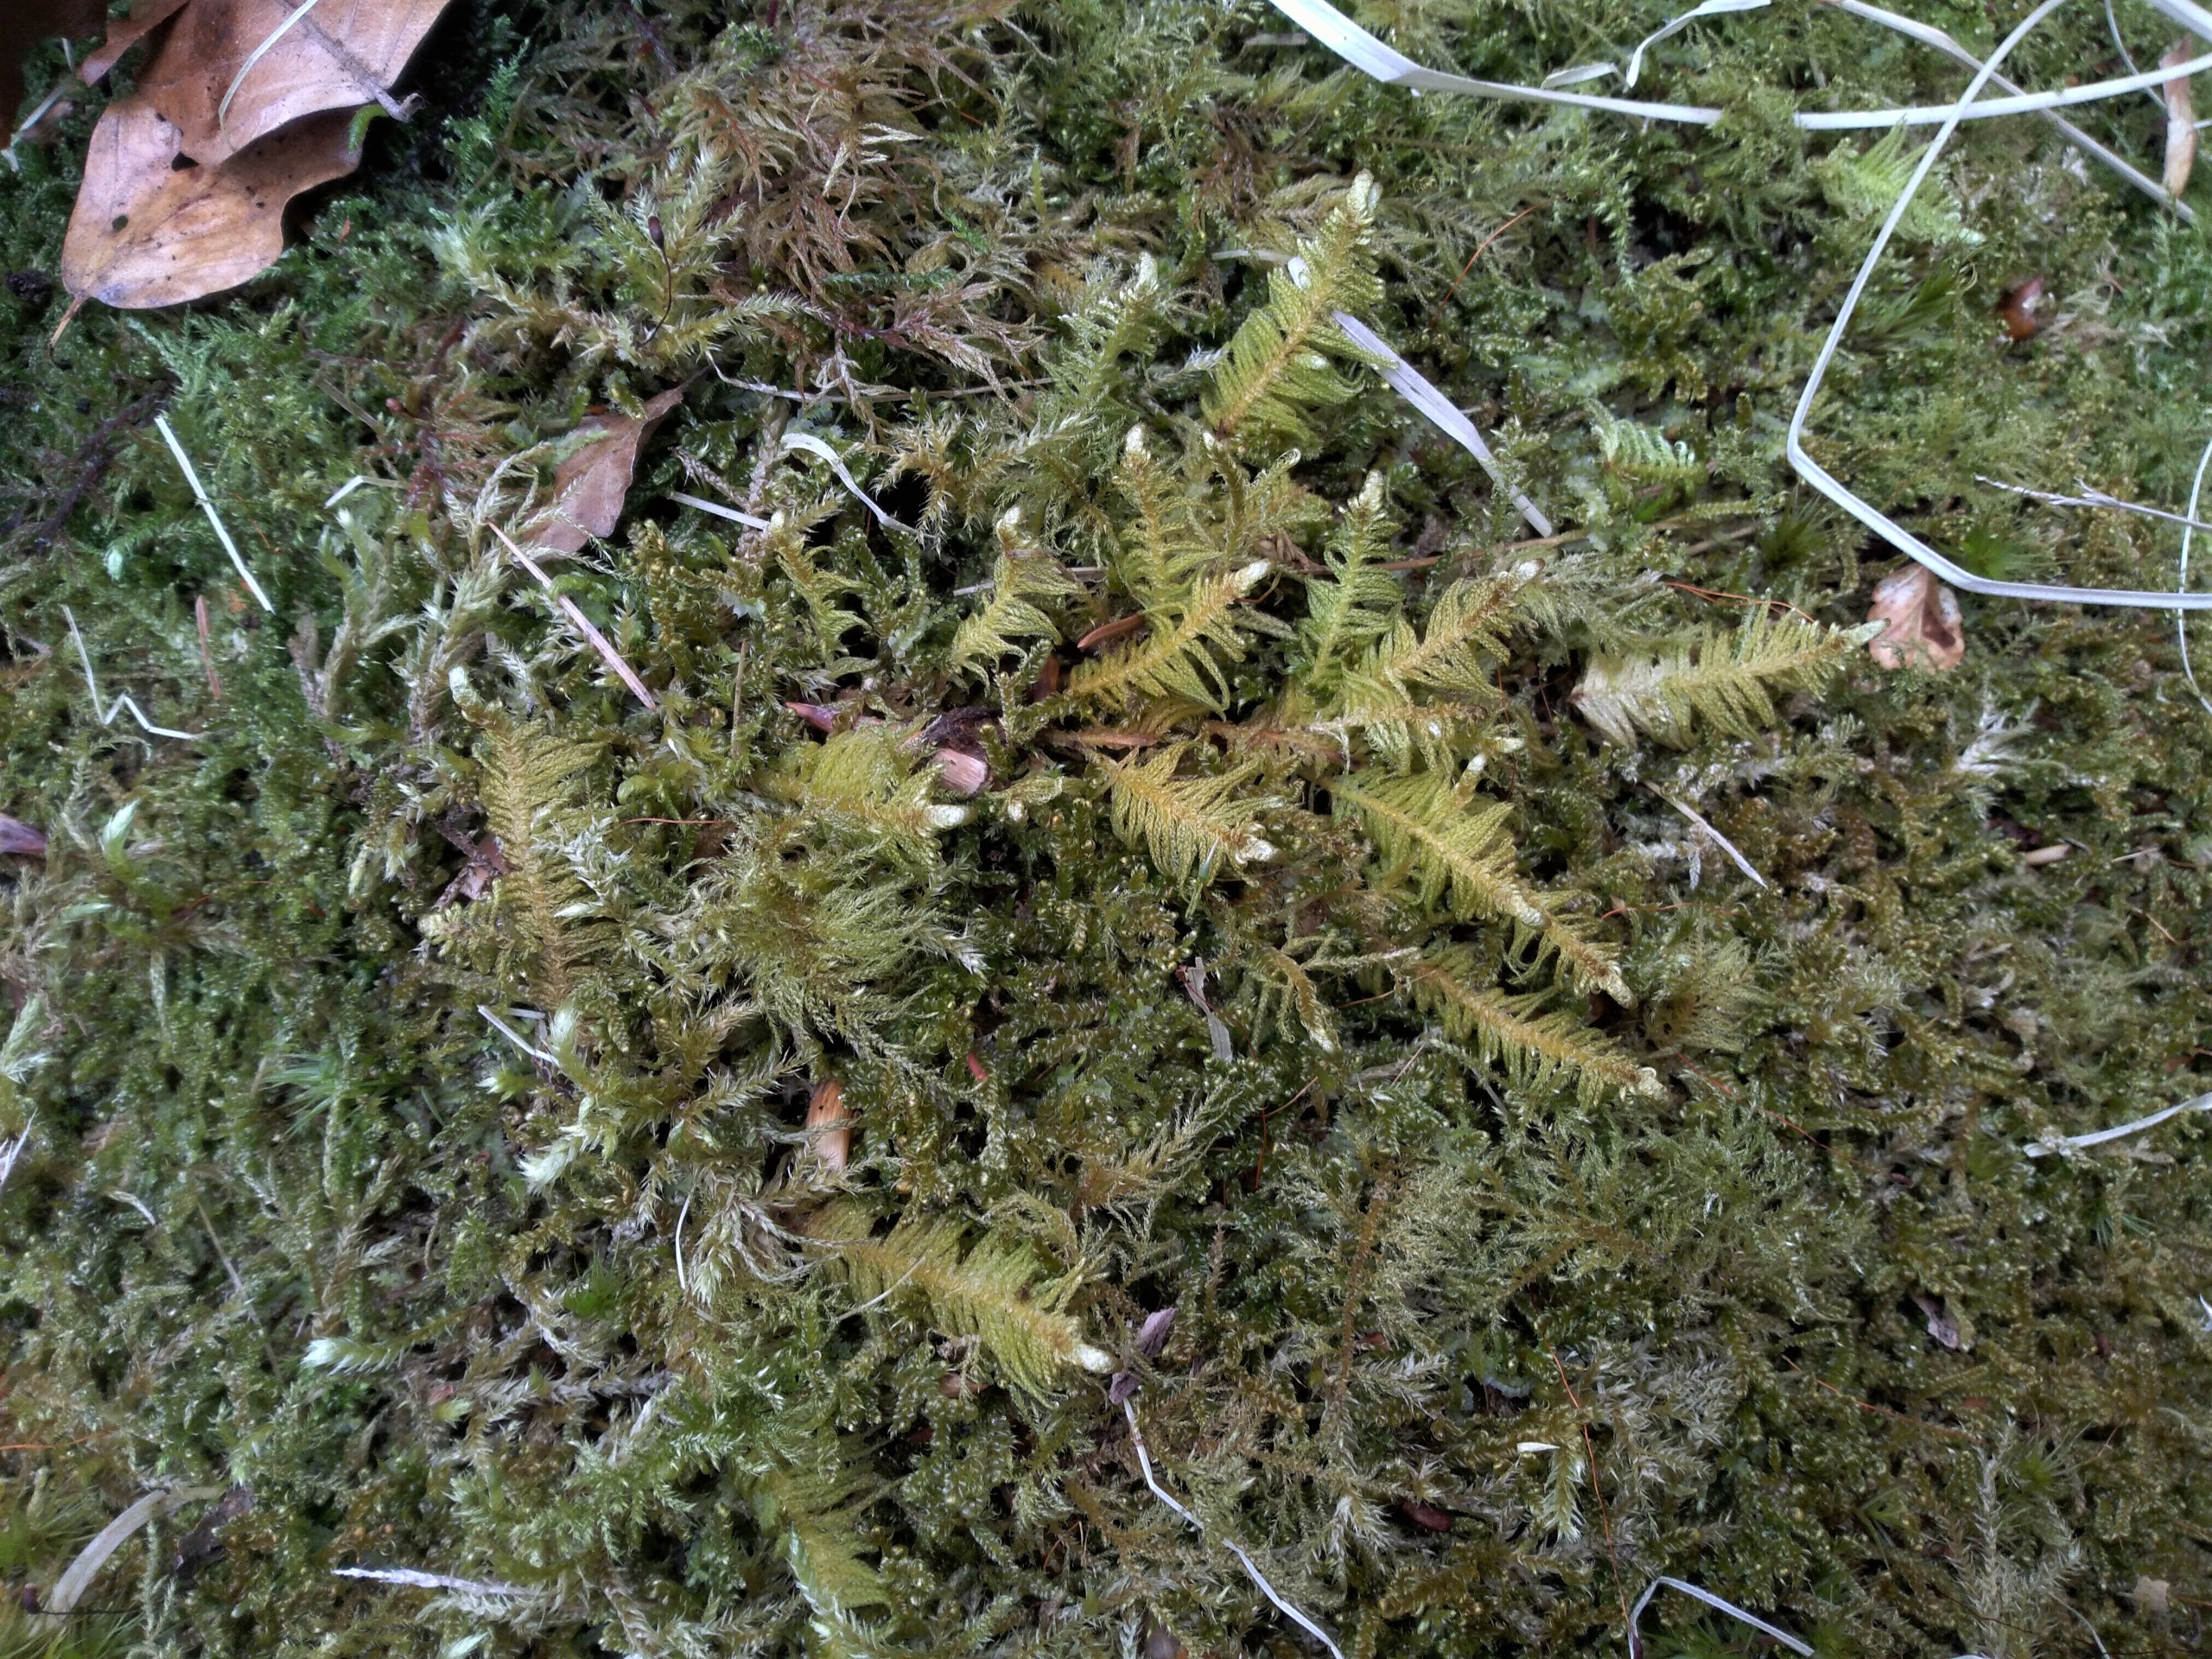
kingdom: Plantae
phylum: Bryophyta
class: Bryopsida
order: Hypnales
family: Pylaisiaceae
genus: Ptilium
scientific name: Ptilium crista-castrensis
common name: Fjer-kammos
